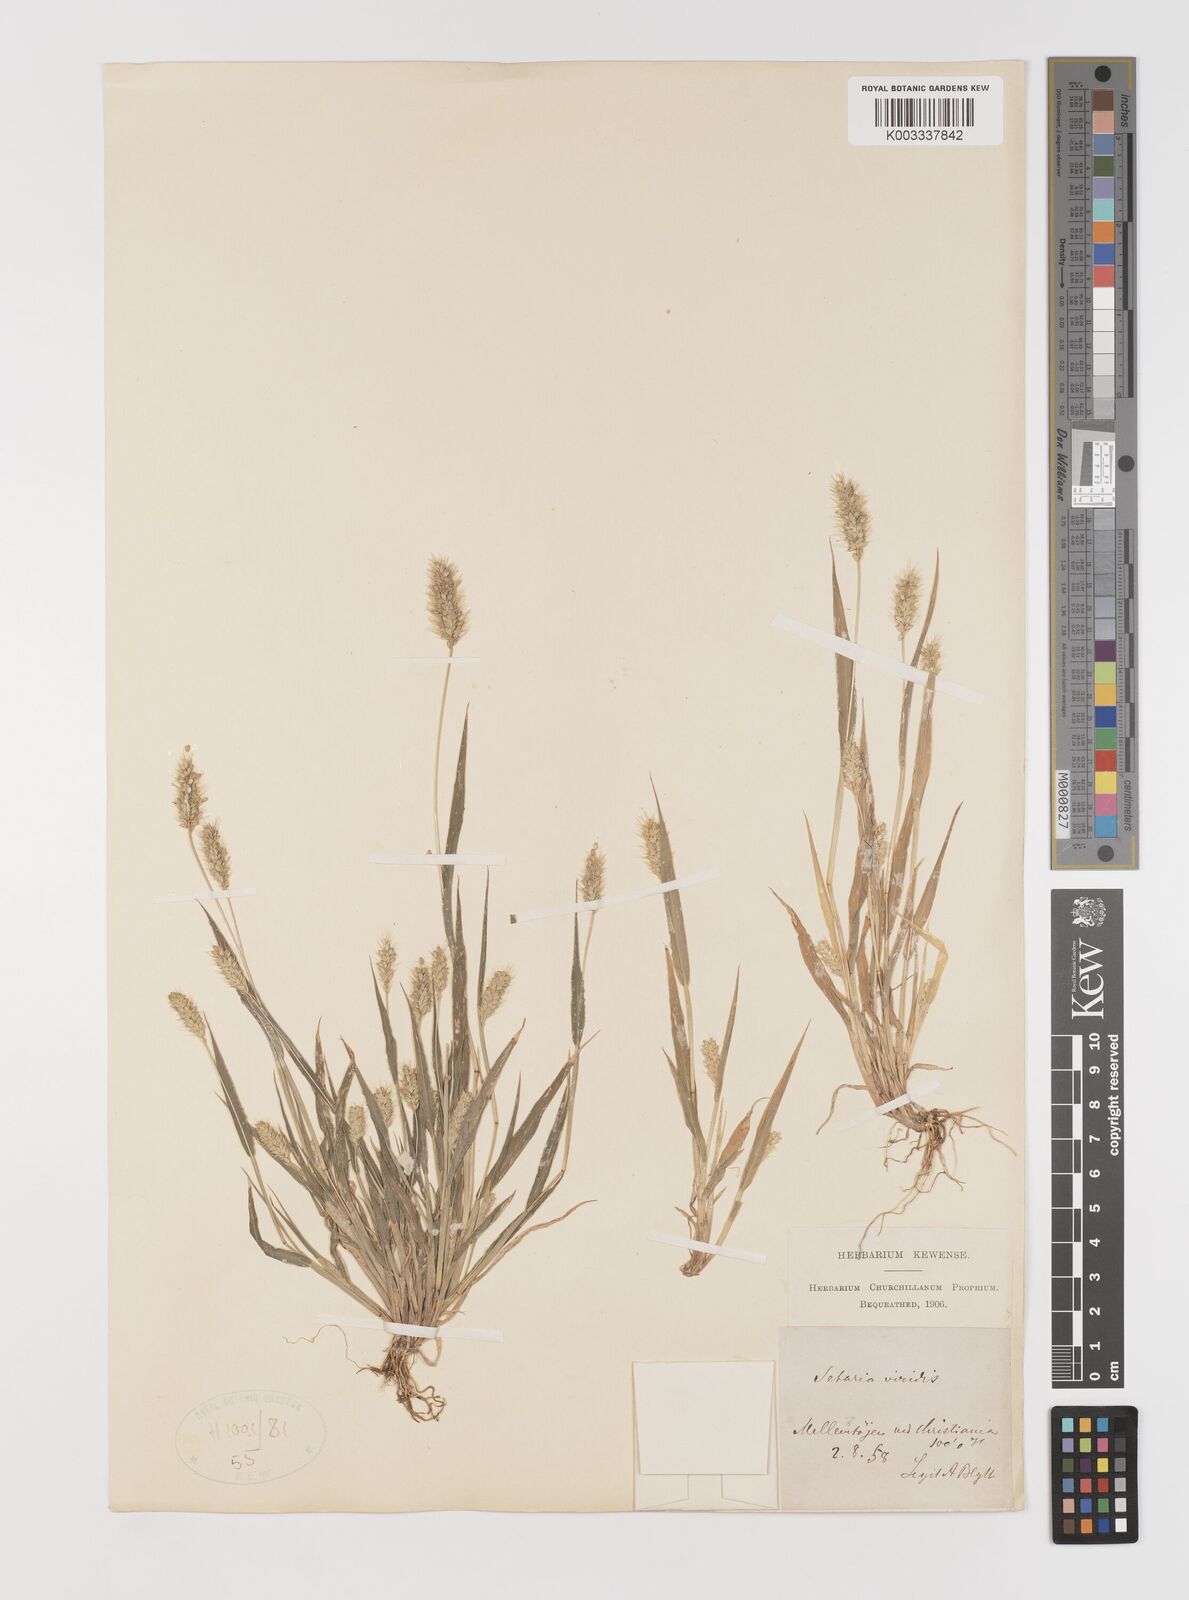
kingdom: Plantae
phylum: Tracheophyta
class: Liliopsida
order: Poales
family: Poaceae
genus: Setaria
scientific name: Setaria viridis
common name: Green bristlegrass
